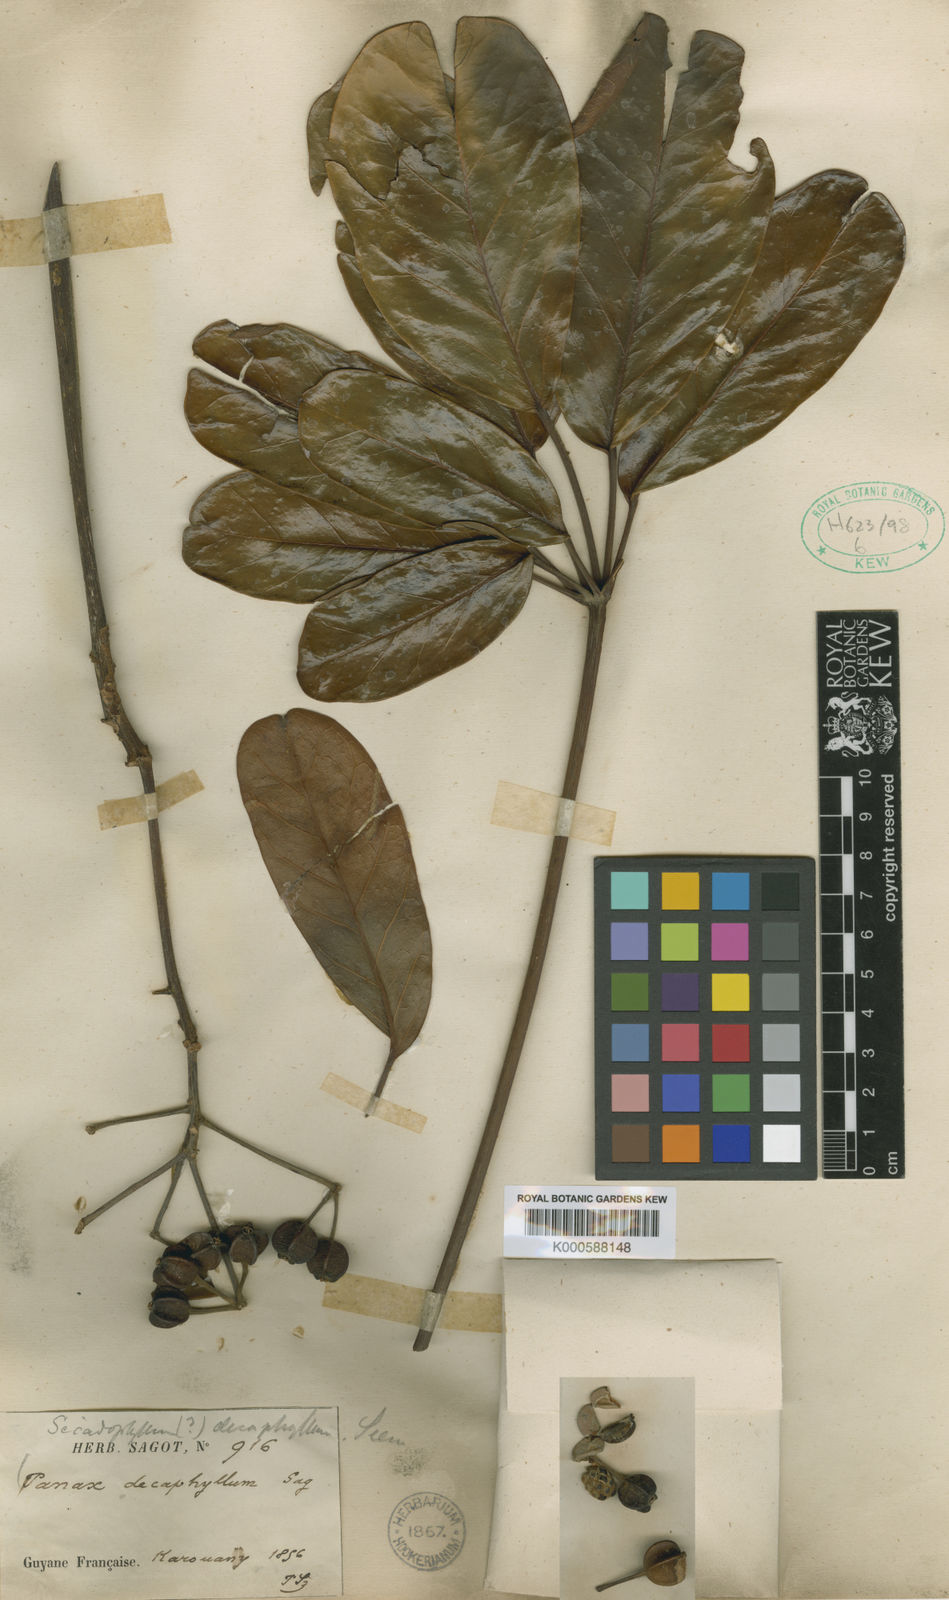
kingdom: Plantae
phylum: Tracheophyta
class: Magnoliopsida
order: Apiales
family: Araliaceae
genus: Didymopanax
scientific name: Didymopanax decaphyllus
